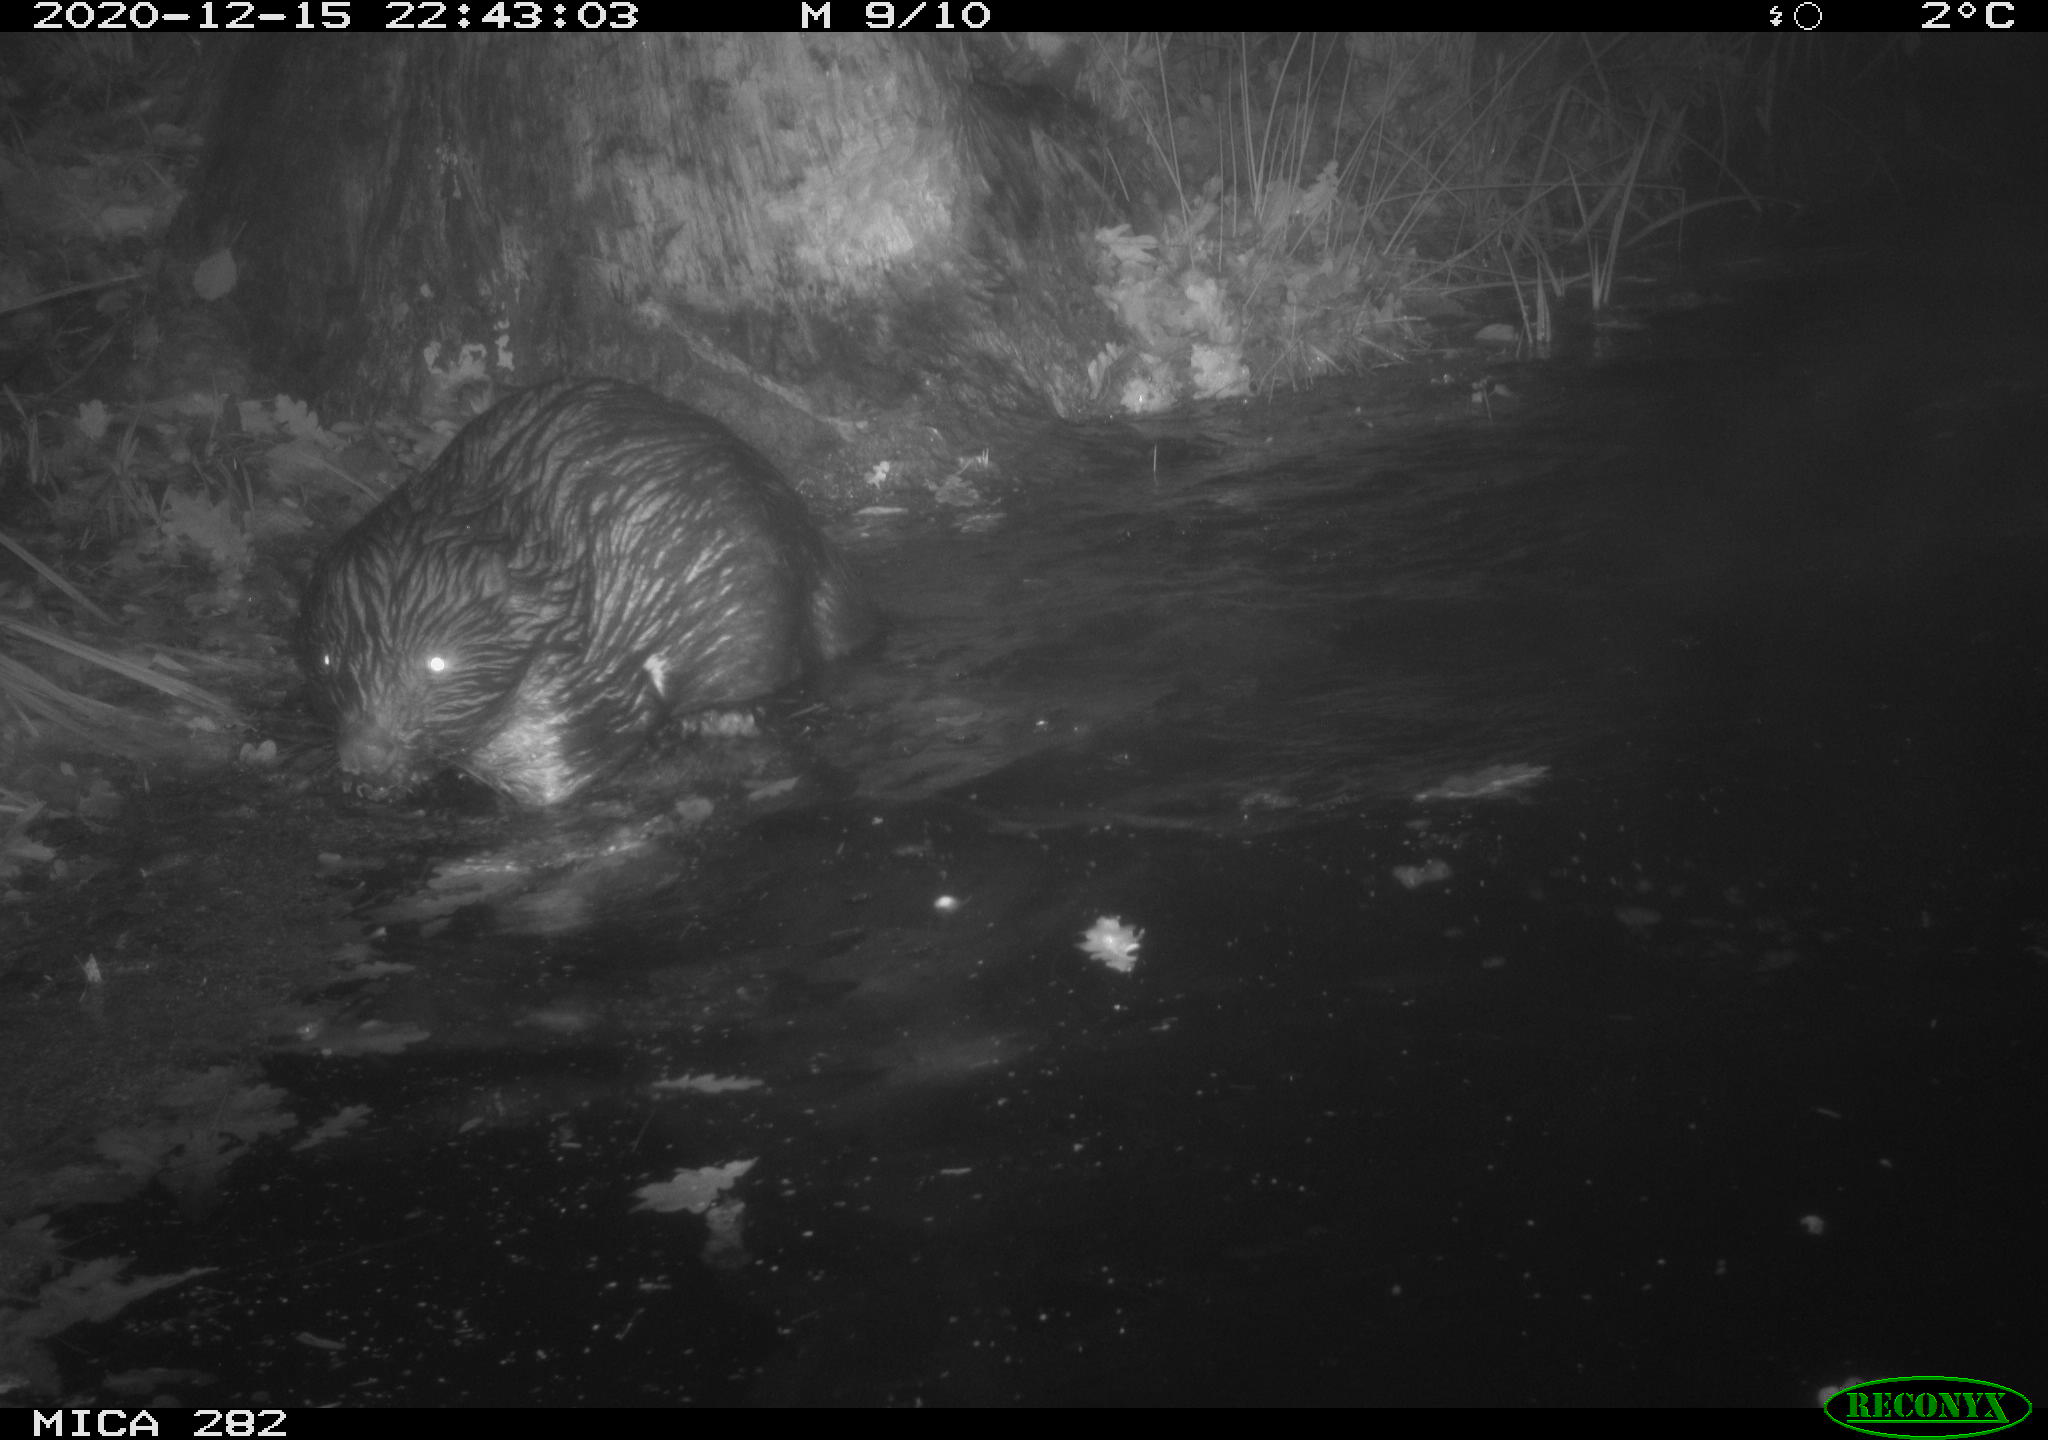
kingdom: Animalia
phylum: Chordata
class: Mammalia
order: Rodentia
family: Castoridae
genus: Castor
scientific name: Castor fiber
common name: Eurasian beaver
